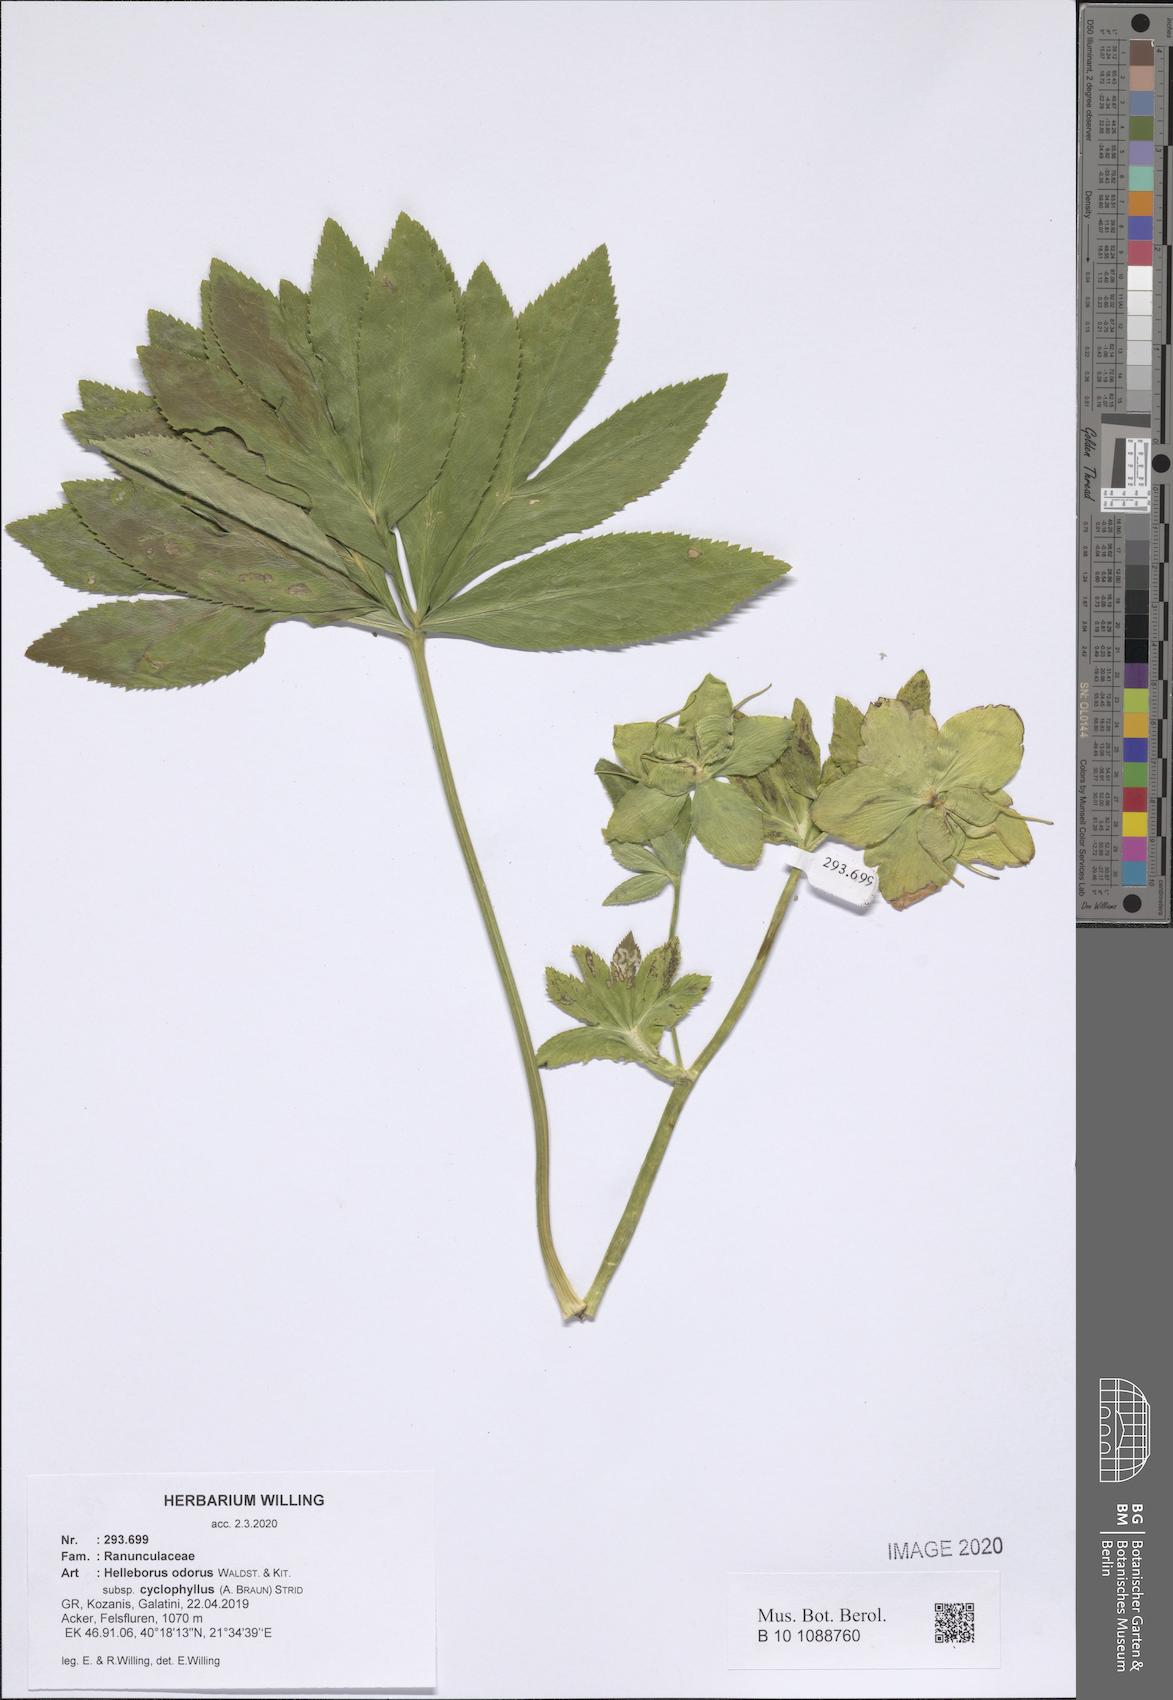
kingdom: Plantae
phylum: Tracheophyta
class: Magnoliopsida
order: Ranunculales
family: Ranunculaceae
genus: Helleborus
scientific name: Helleborus odorus
